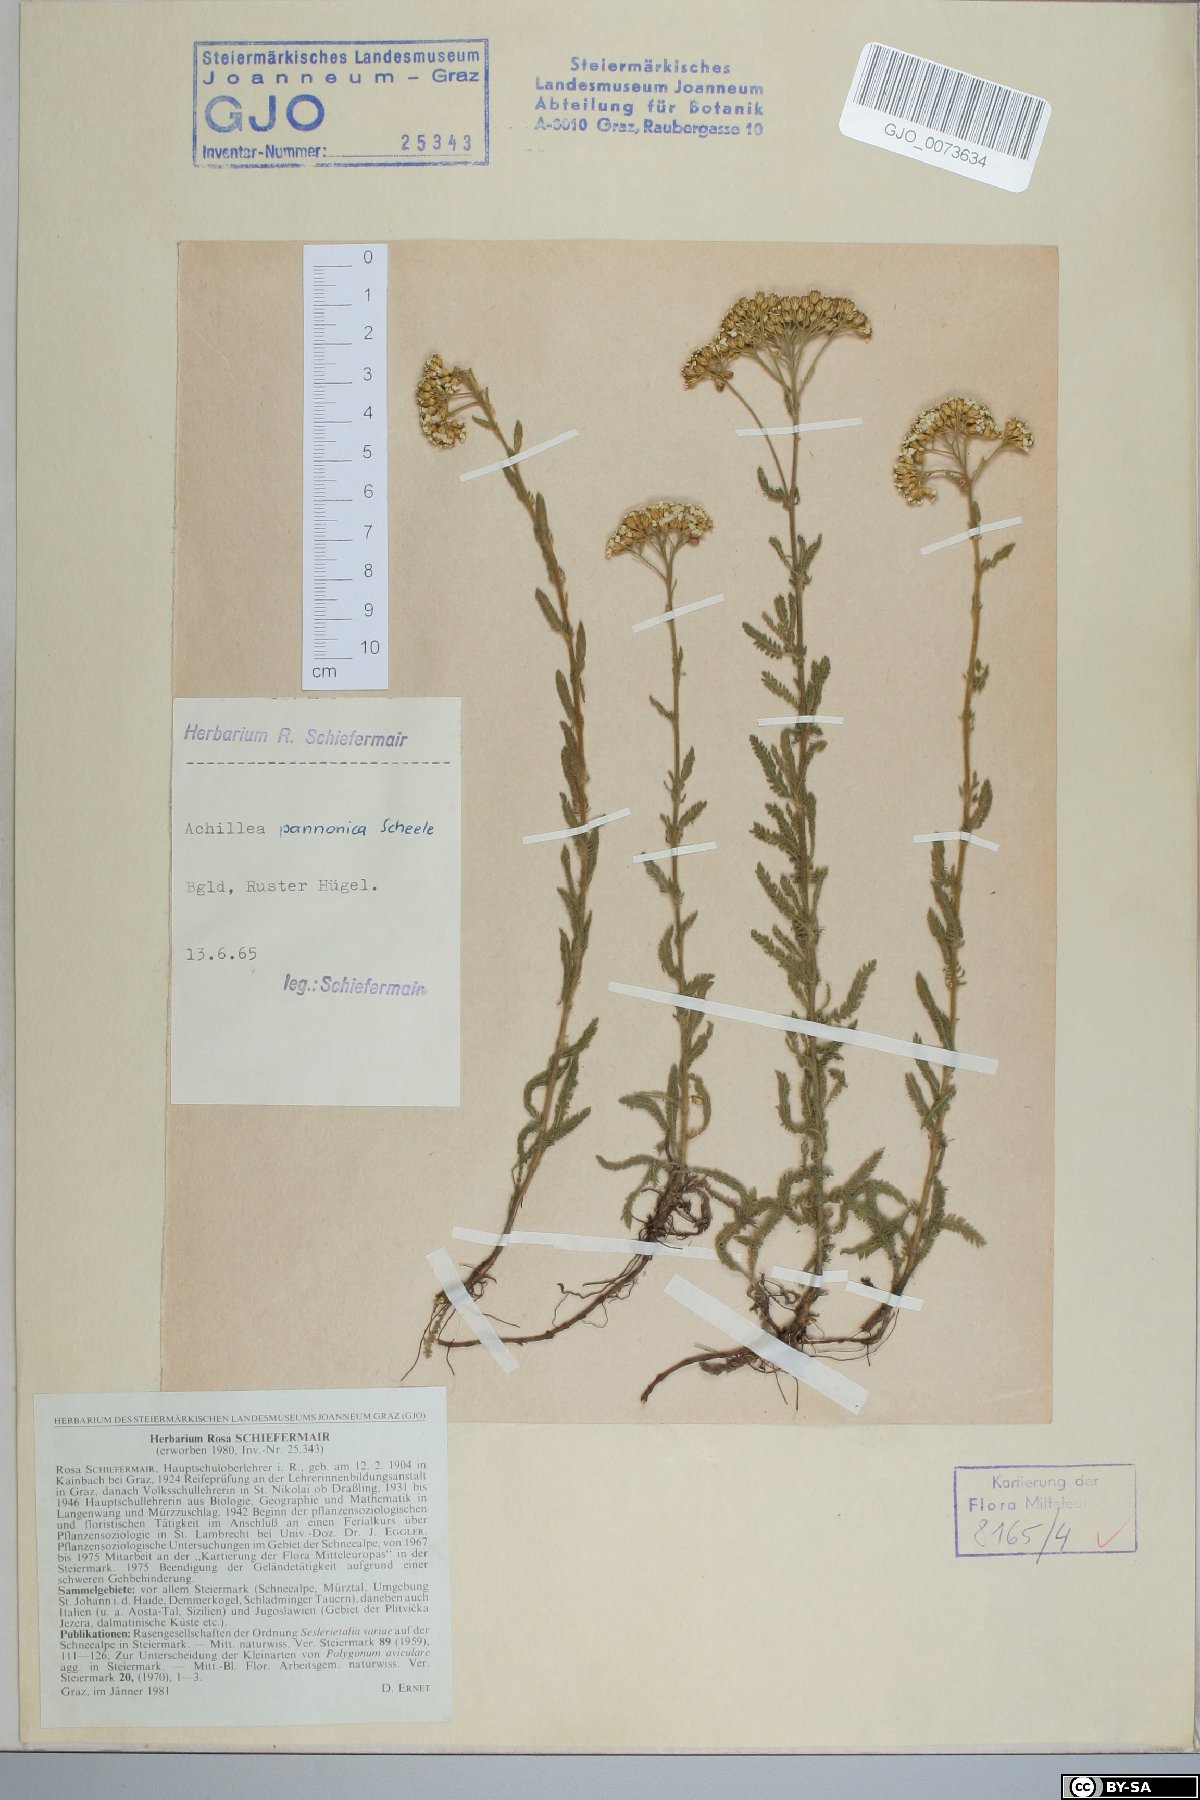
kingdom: Plantae
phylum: Tracheophyta
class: Magnoliopsida
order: Asterales
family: Asteraceae
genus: Achillea
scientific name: Achillea pannonica
